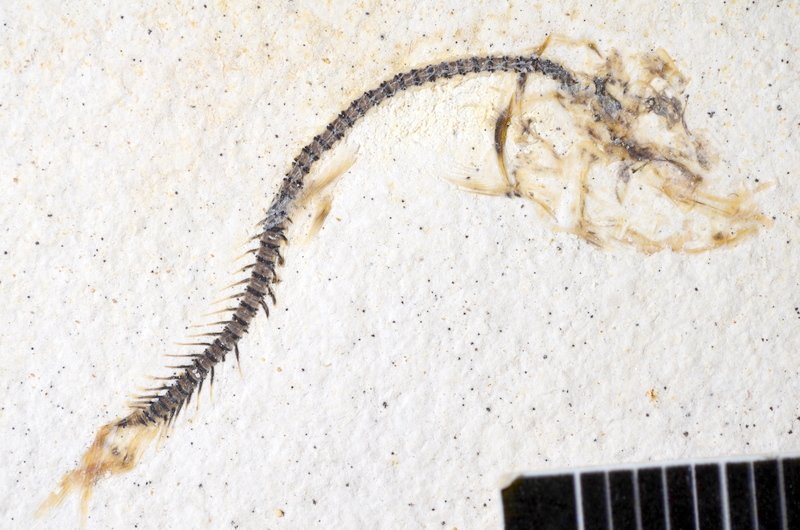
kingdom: Animalia
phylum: Chordata
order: Salmoniformes
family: Orthogonikleithridae
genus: Orthogonikleithrus
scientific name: Orthogonikleithrus hoelli
